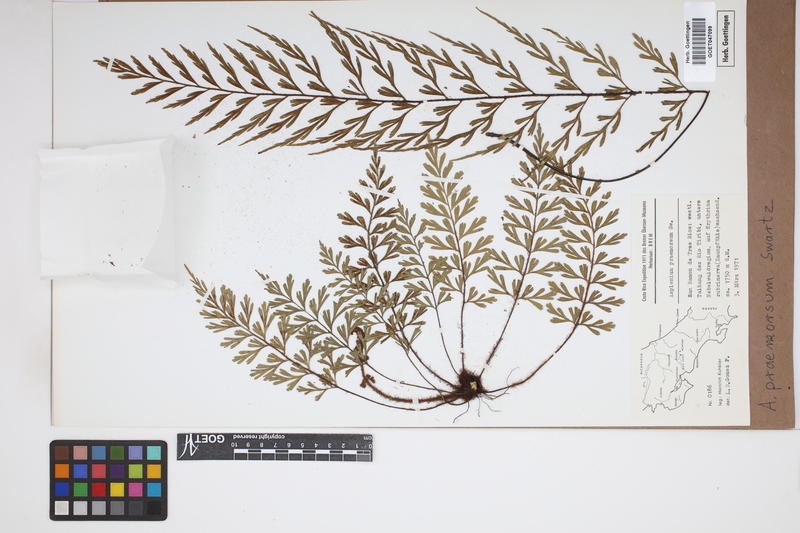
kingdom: Plantae
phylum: Tracheophyta
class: Polypodiopsida
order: Polypodiales
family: Aspleniaceae
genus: Asplenium
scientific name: Asplenium praemorsum
